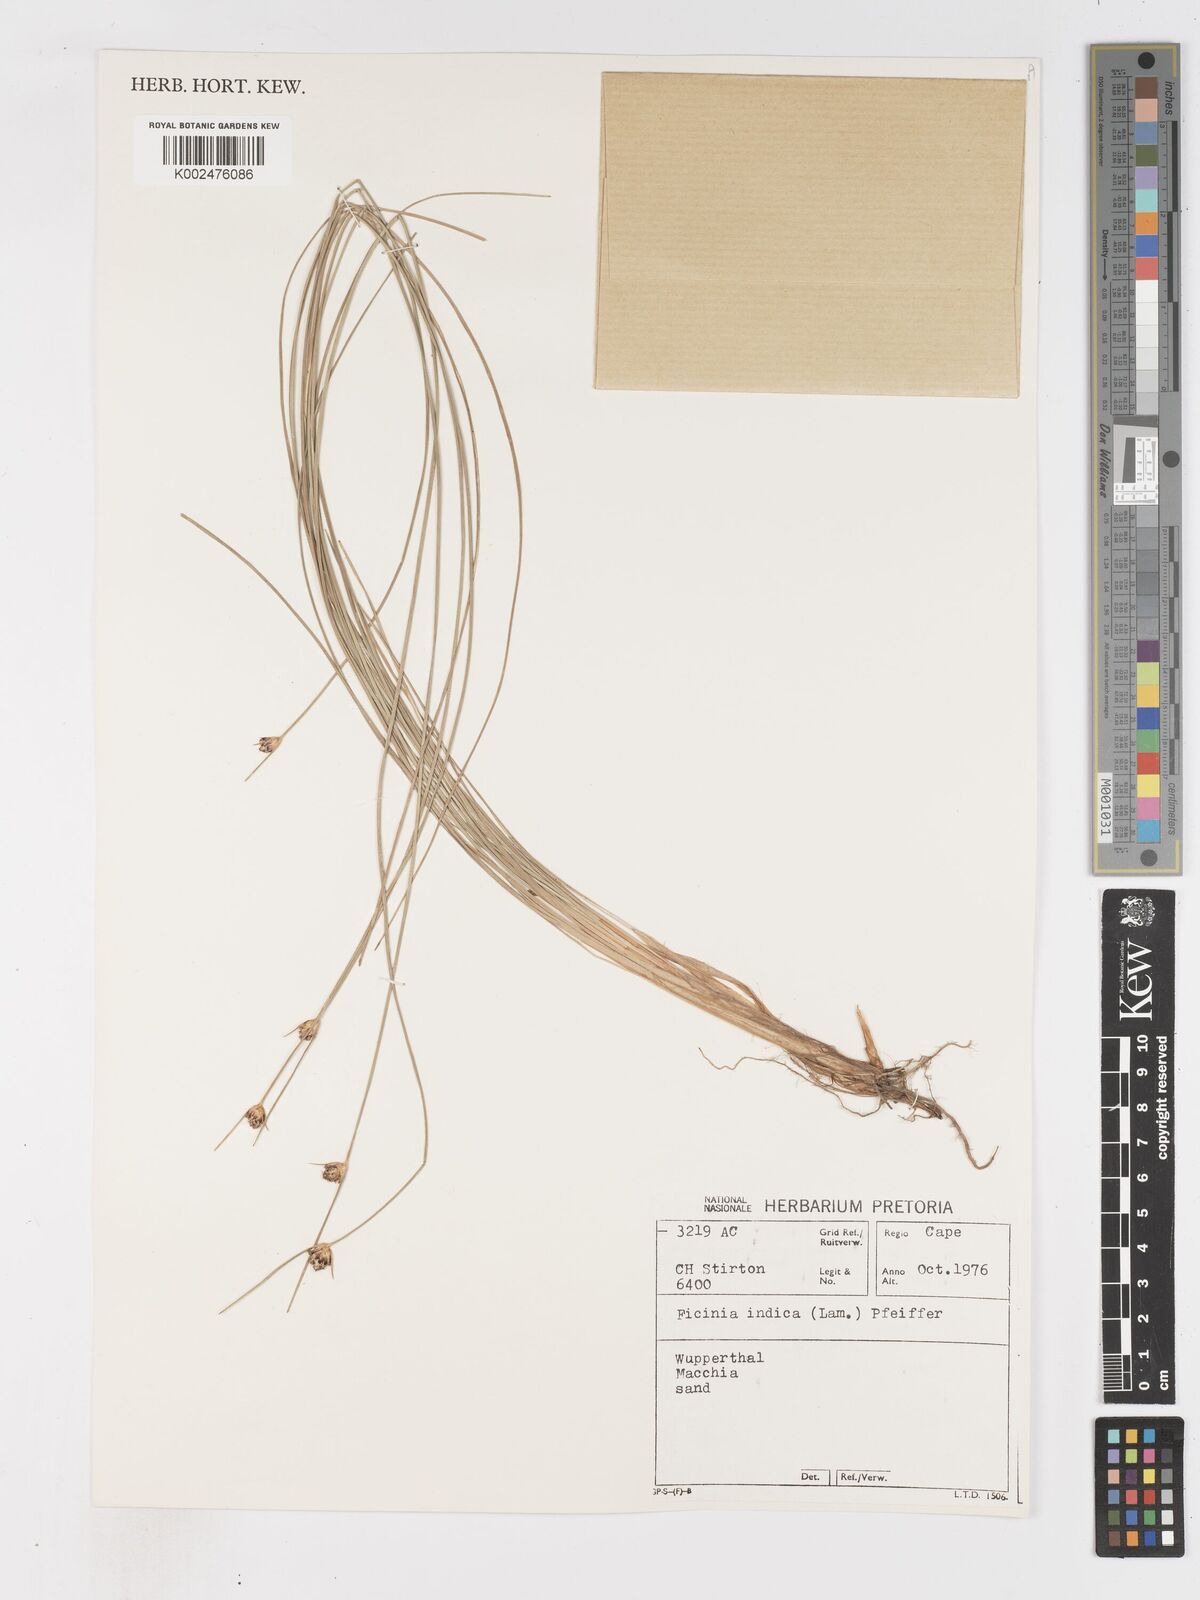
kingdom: Plantae
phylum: Tracheophyta
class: Liliopsida
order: Poales
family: Cyperaceae
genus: Ficinia
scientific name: Ficinia indica
